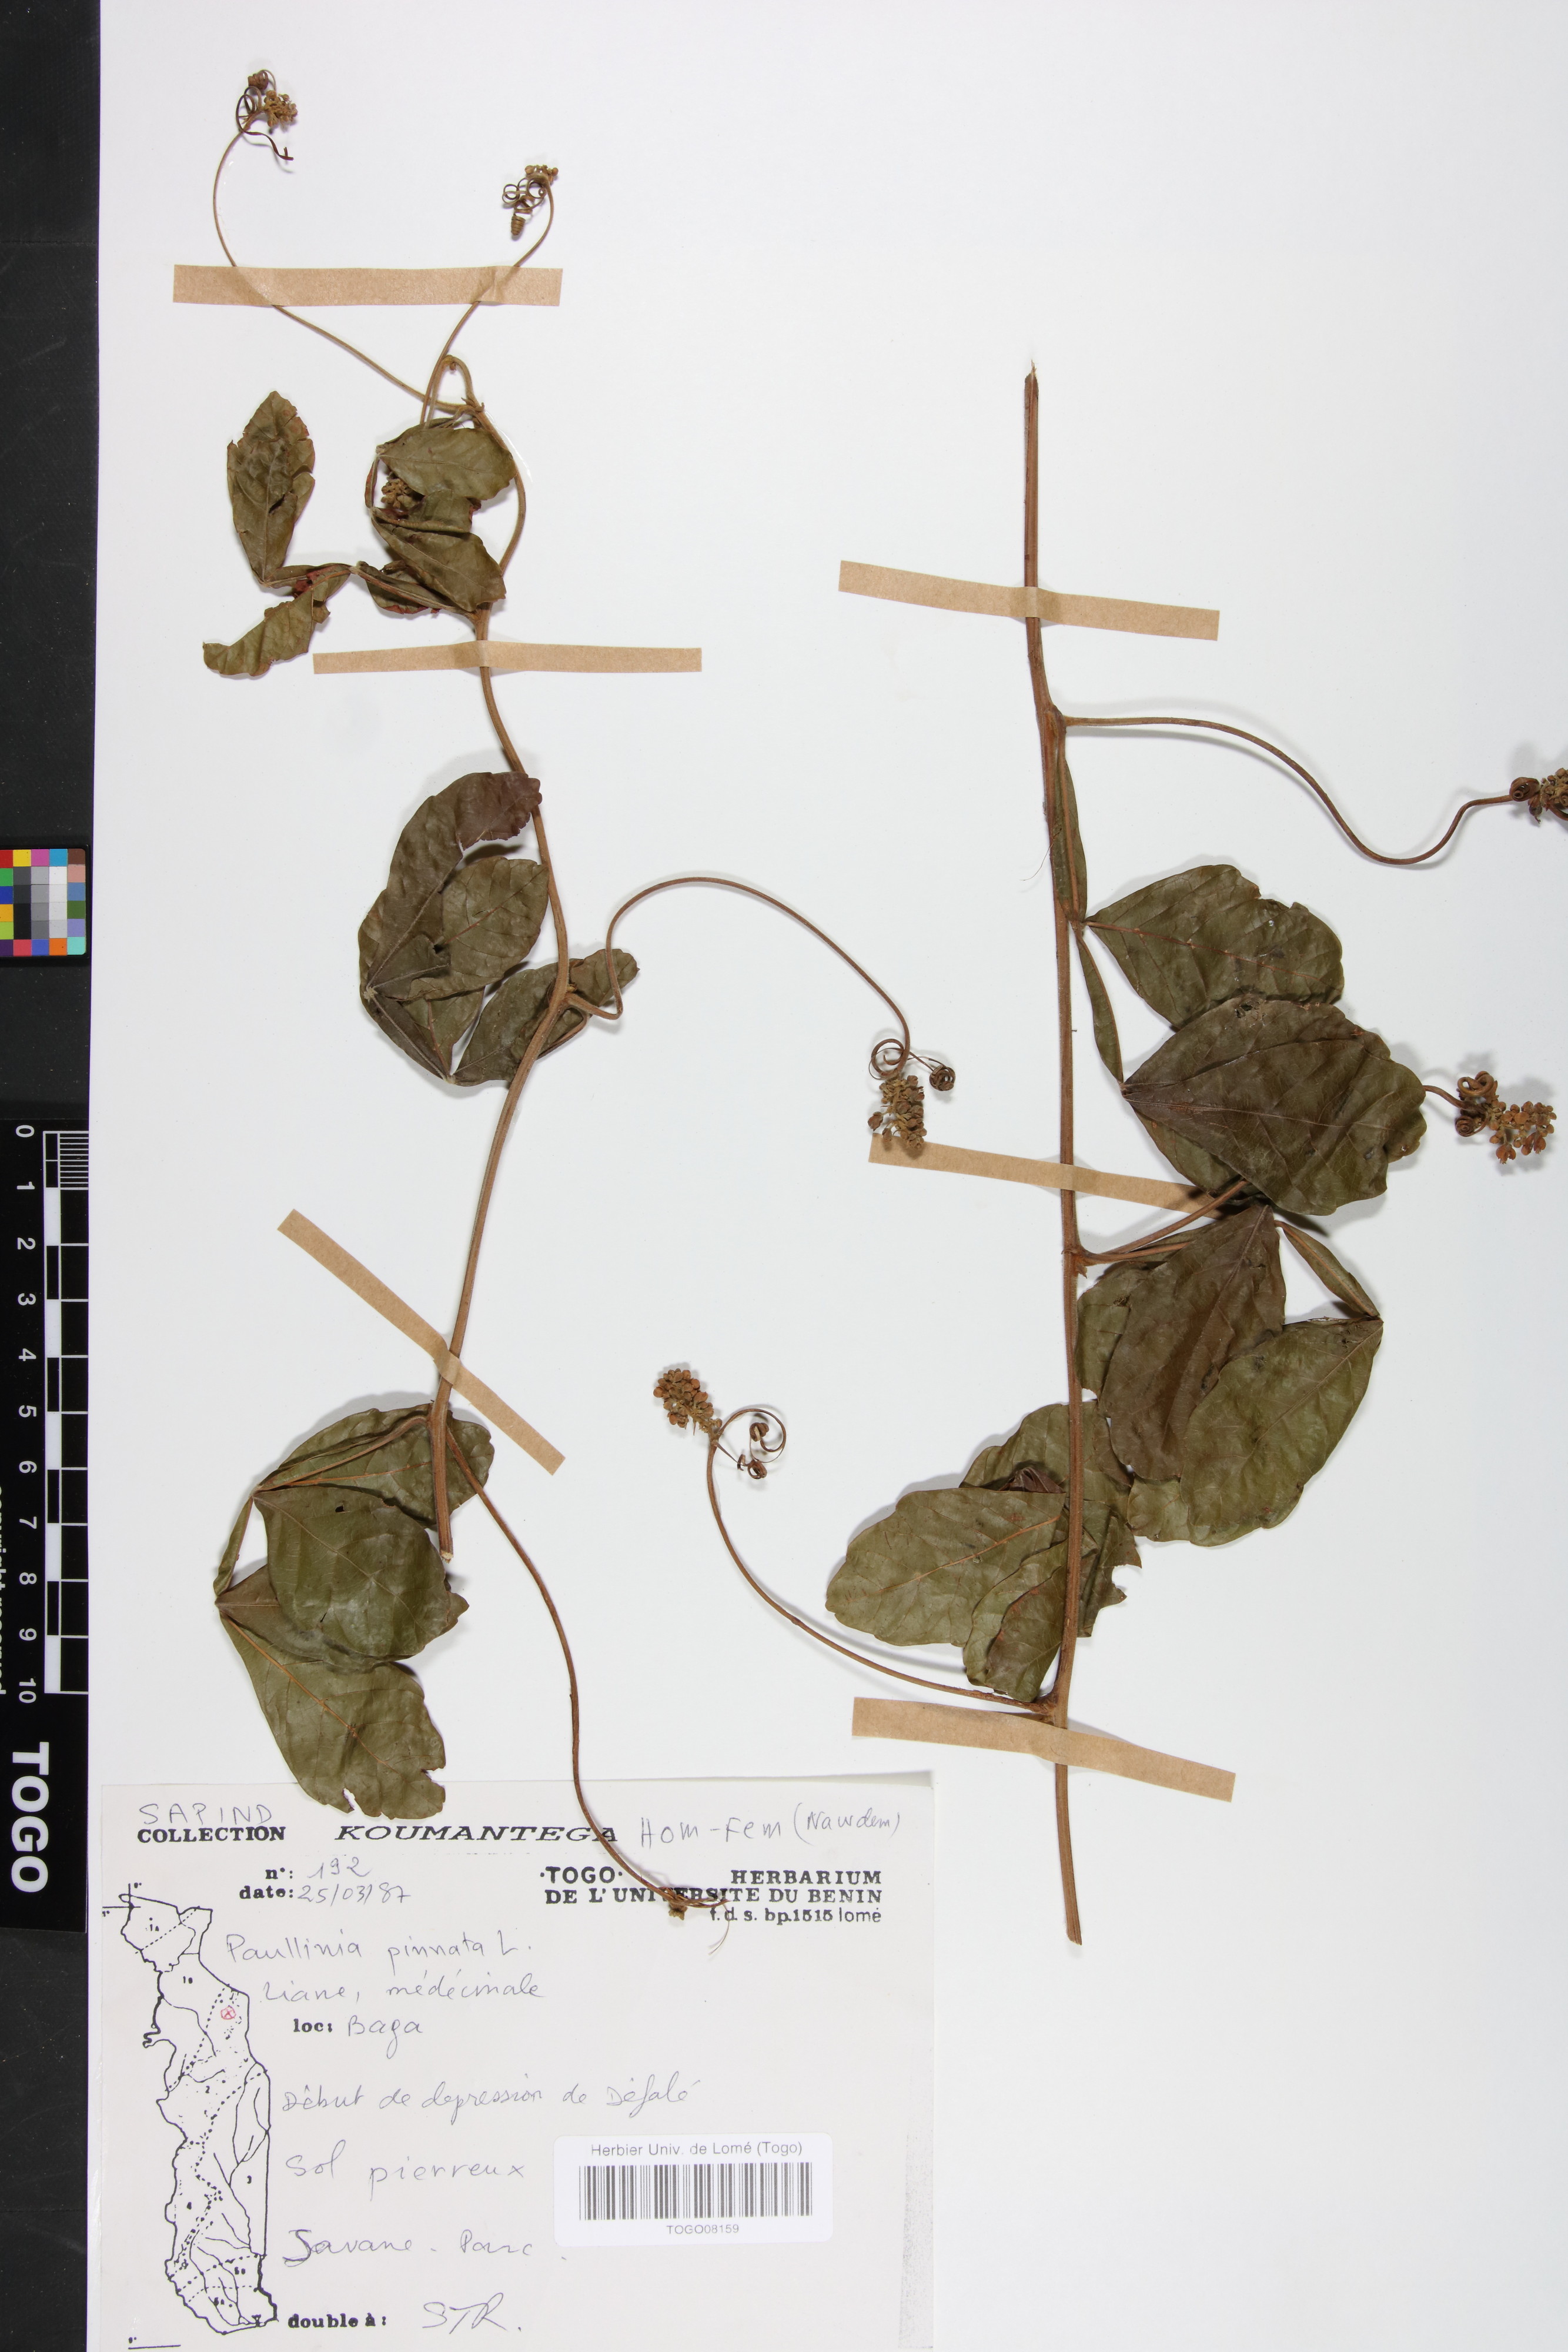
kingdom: Plantae
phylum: Tracheophyta
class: Magnoliopsida
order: Sapindales
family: Sapindaceae
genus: Paullinia
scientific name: Paullinia pinnata
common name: Barbasco
